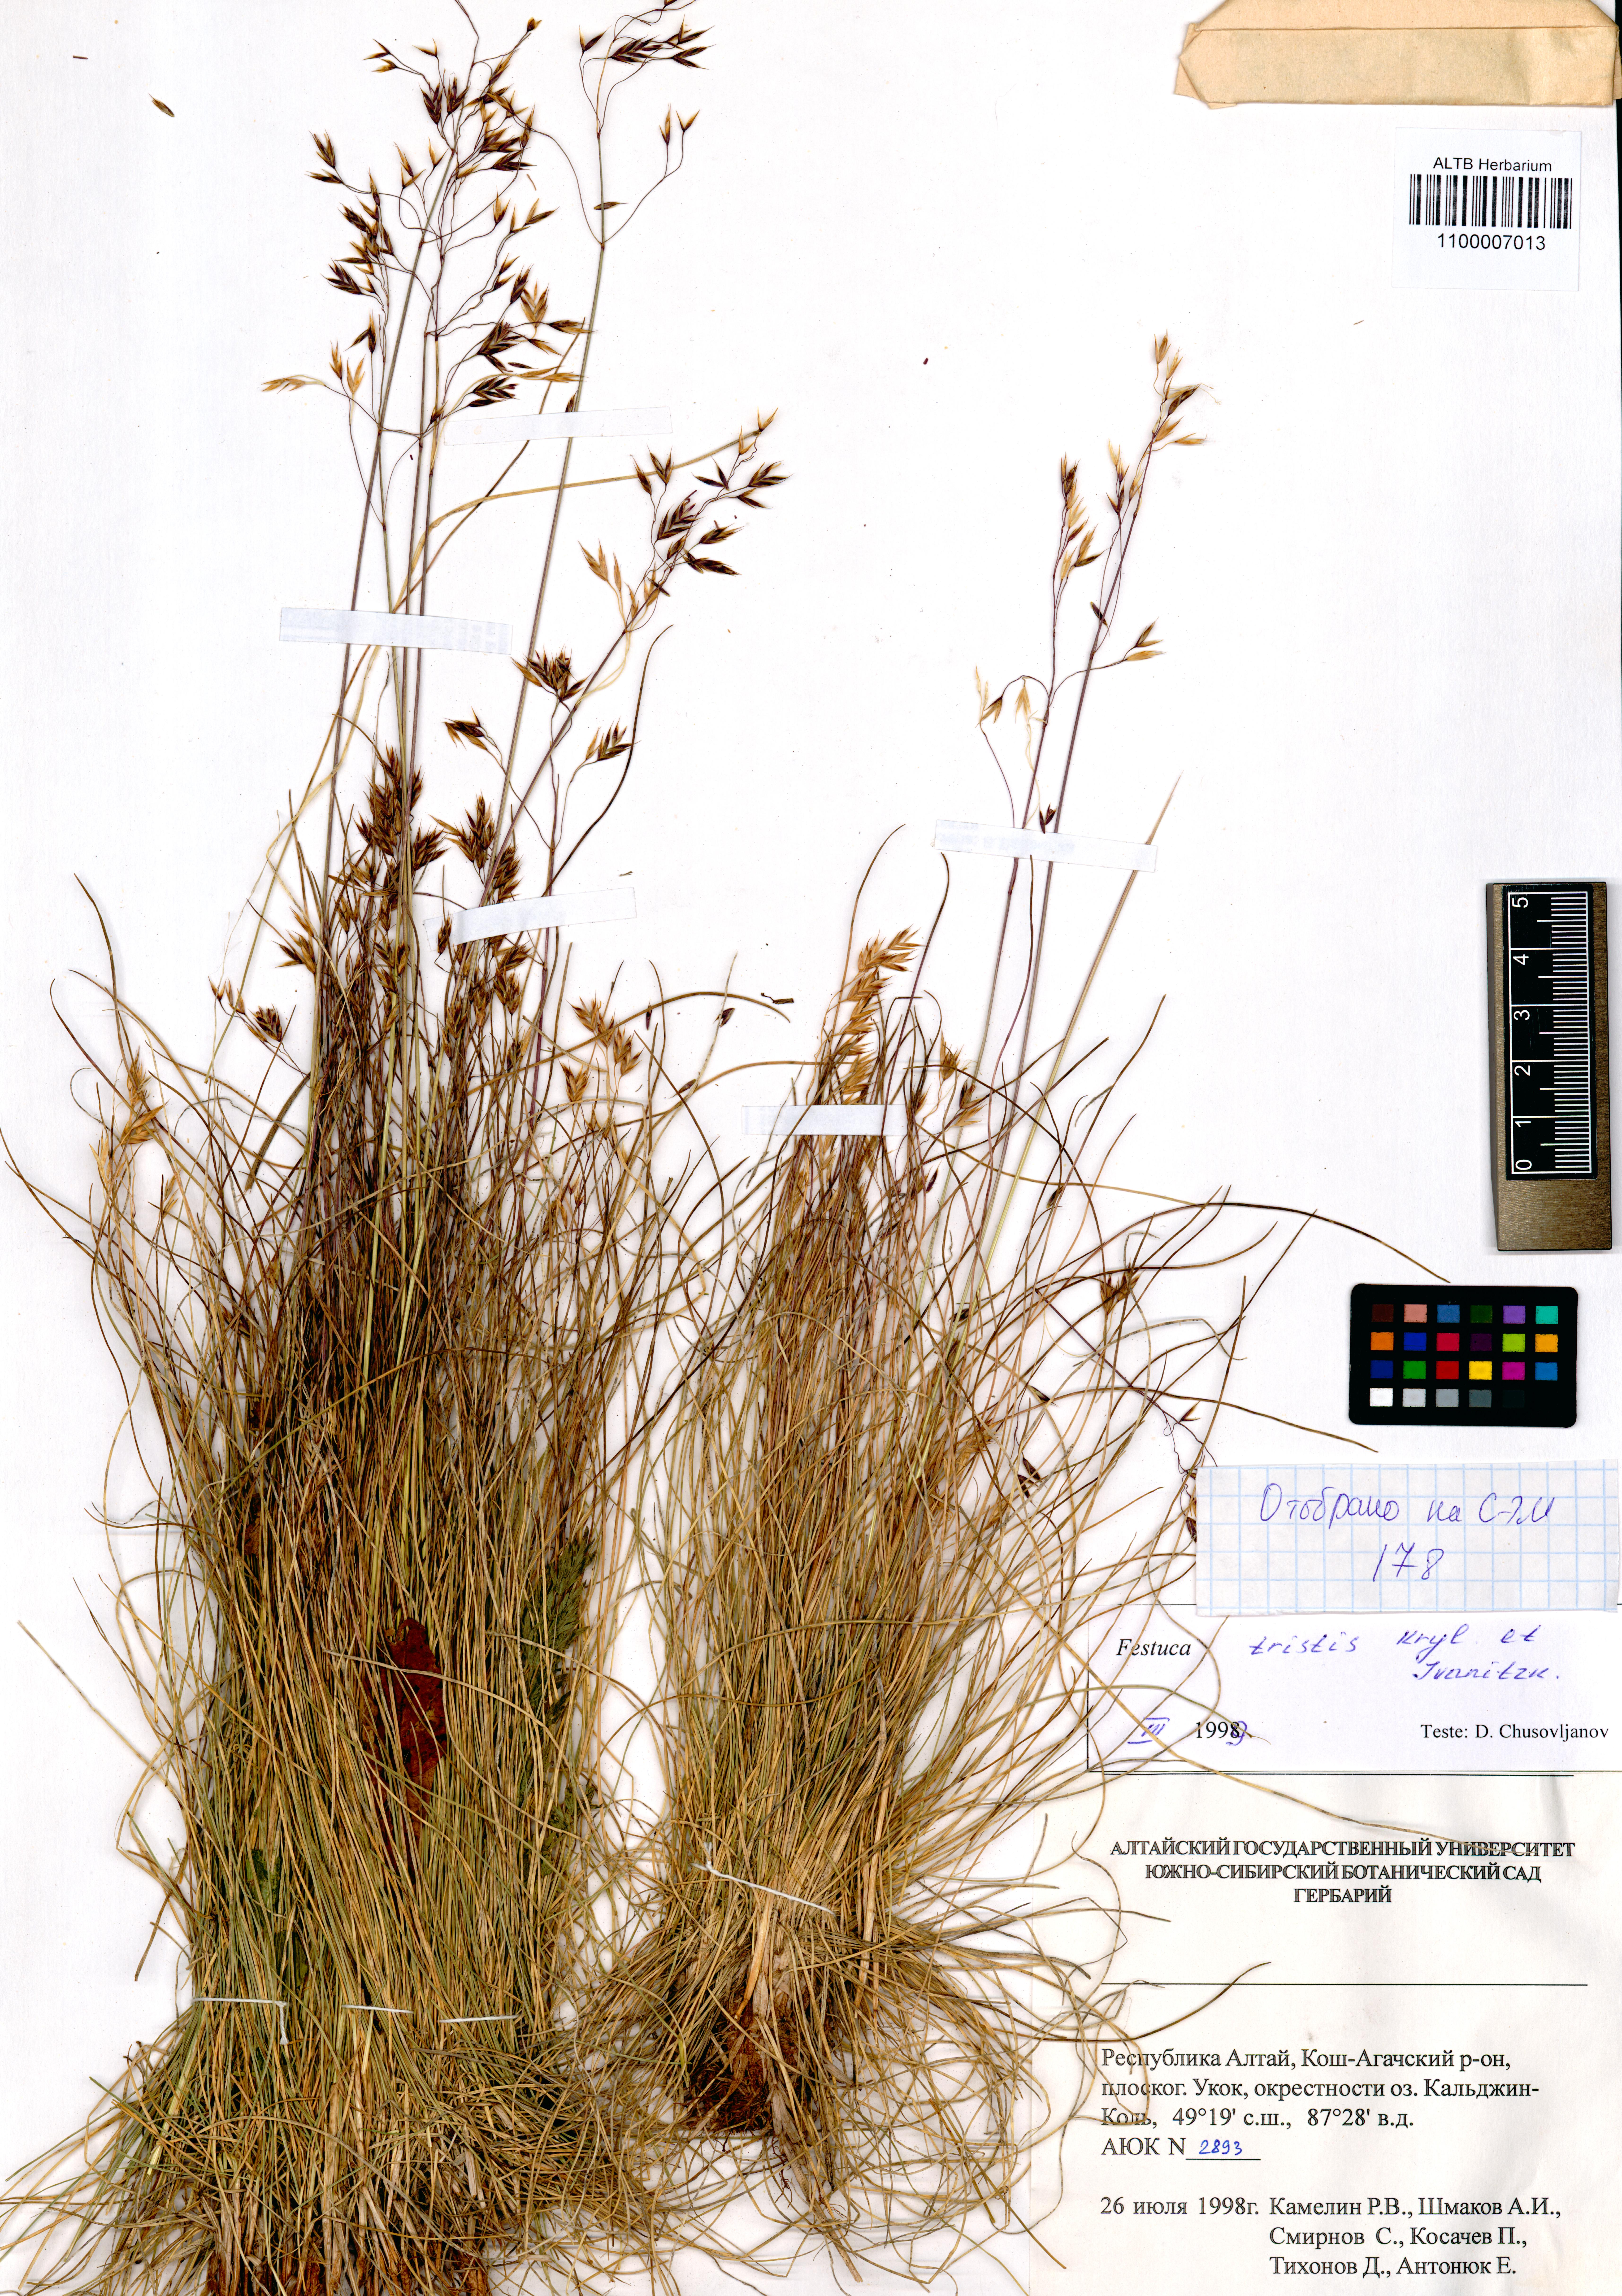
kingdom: Plantae
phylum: Tracheophyta
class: Liliopsida
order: Poales
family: Poaceae
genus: Festuca
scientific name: Festuca tristis
